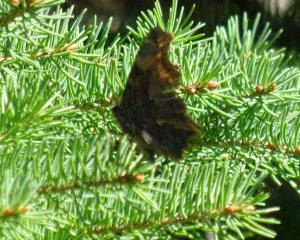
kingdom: Animalia
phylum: Arthropoda
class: Insecta
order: Lepidoptera
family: Nymphalidae
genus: Polygonia
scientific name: Polygonia progne
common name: Gray Comma
